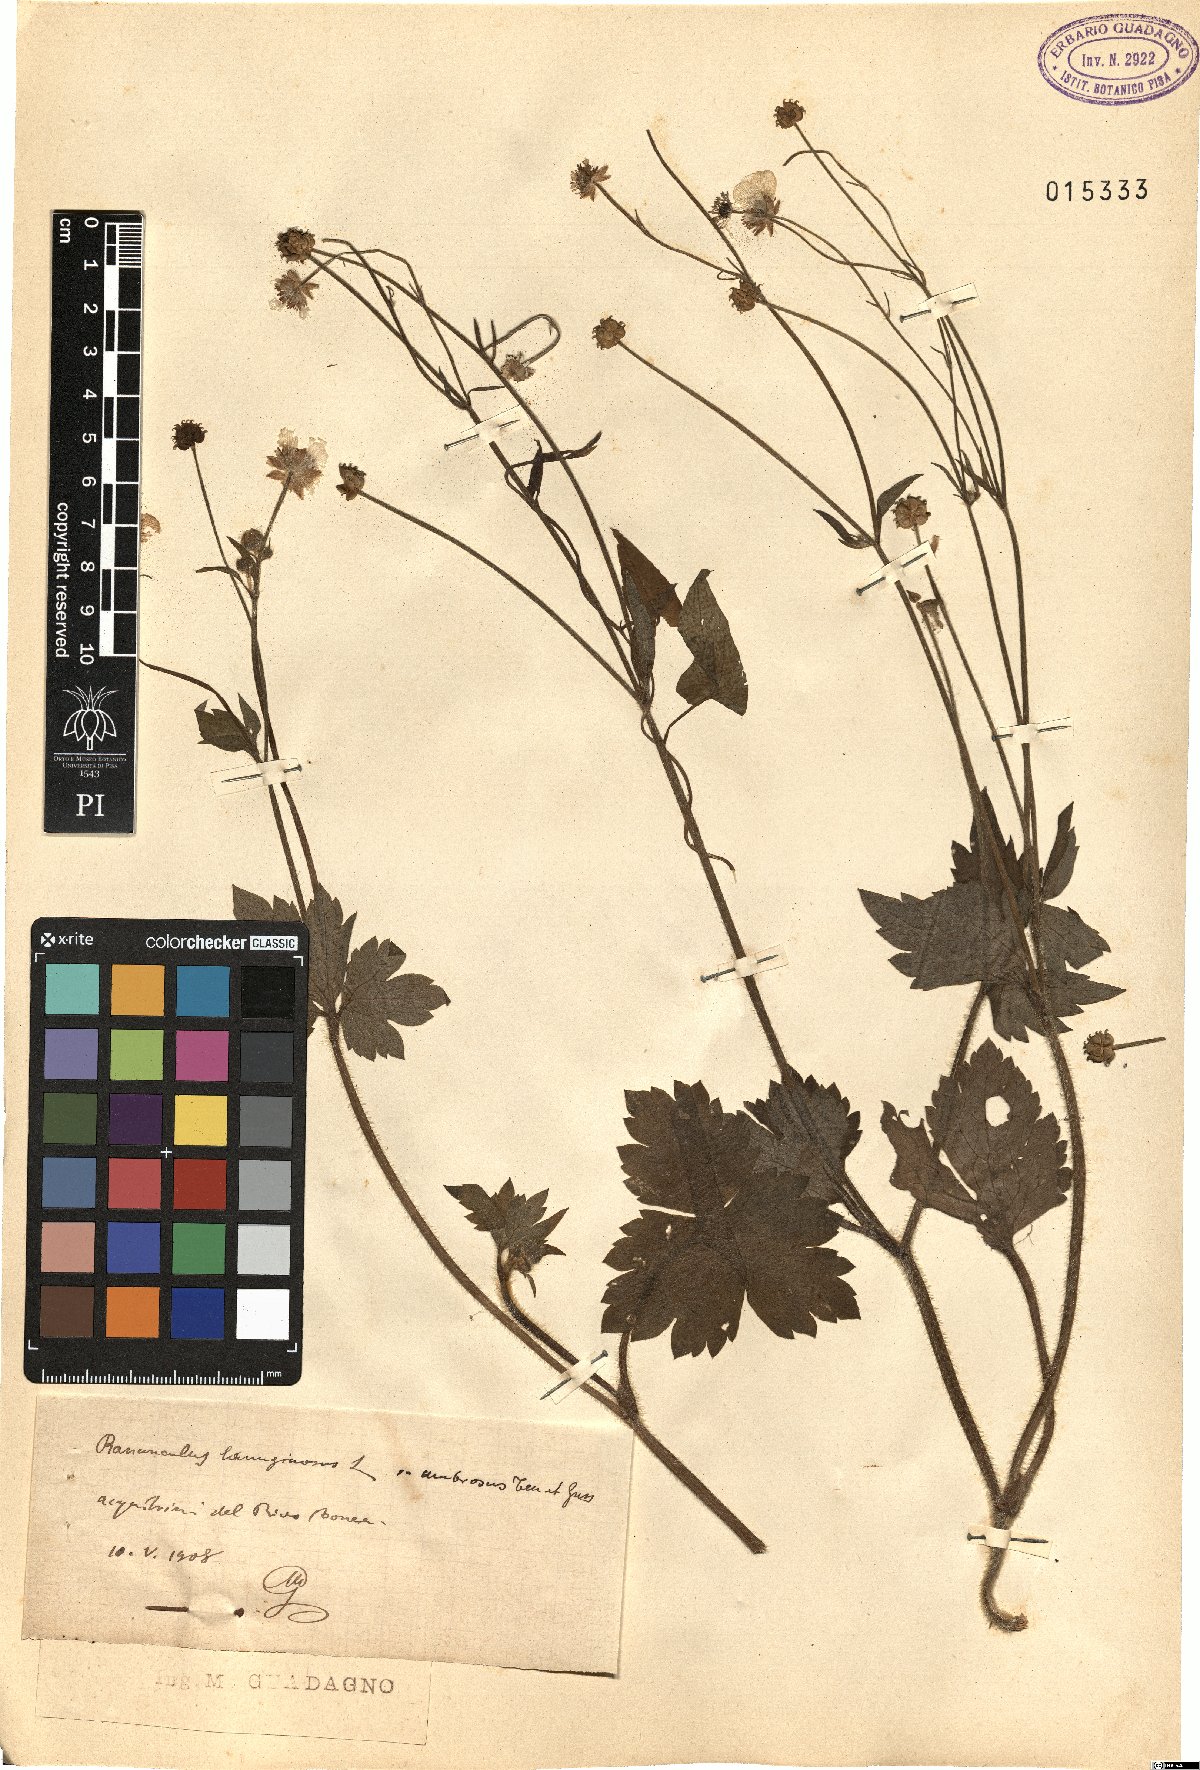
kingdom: Plantae
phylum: Tracheophyta
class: Magnoliopsida
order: Ranunculales
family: Ranunculaceae
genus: Ranunculus
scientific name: Ranunculus lanuginosus
